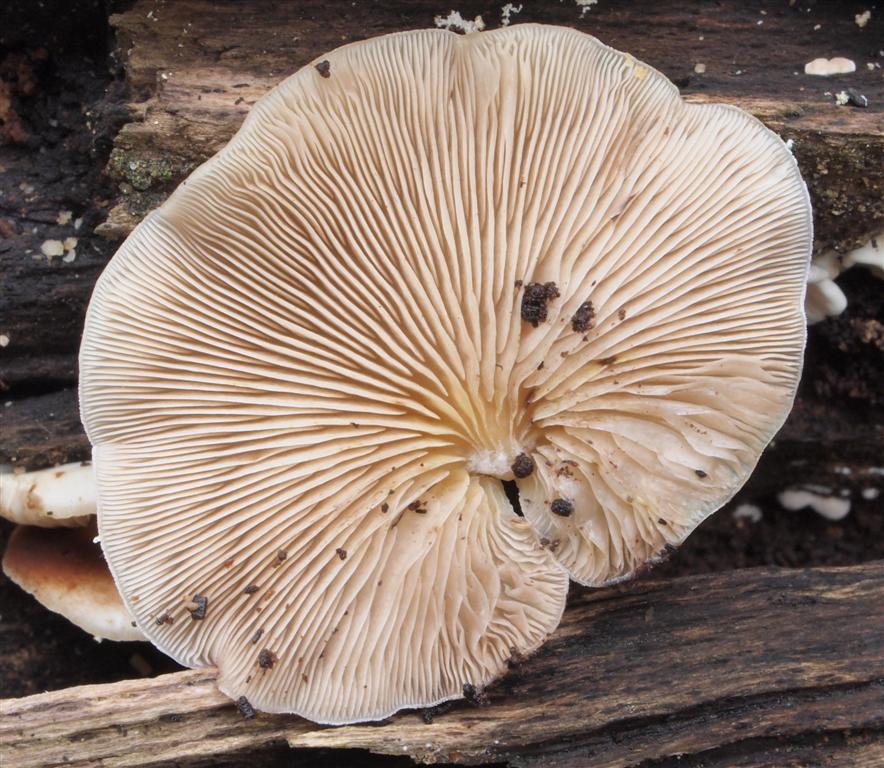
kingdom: Fungi
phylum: Basidiomycota
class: Agaricomycetes
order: Agaricales
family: Crepidotaceae
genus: Crepidotus
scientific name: Crepidotus mollis
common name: blød muslingesvamp
